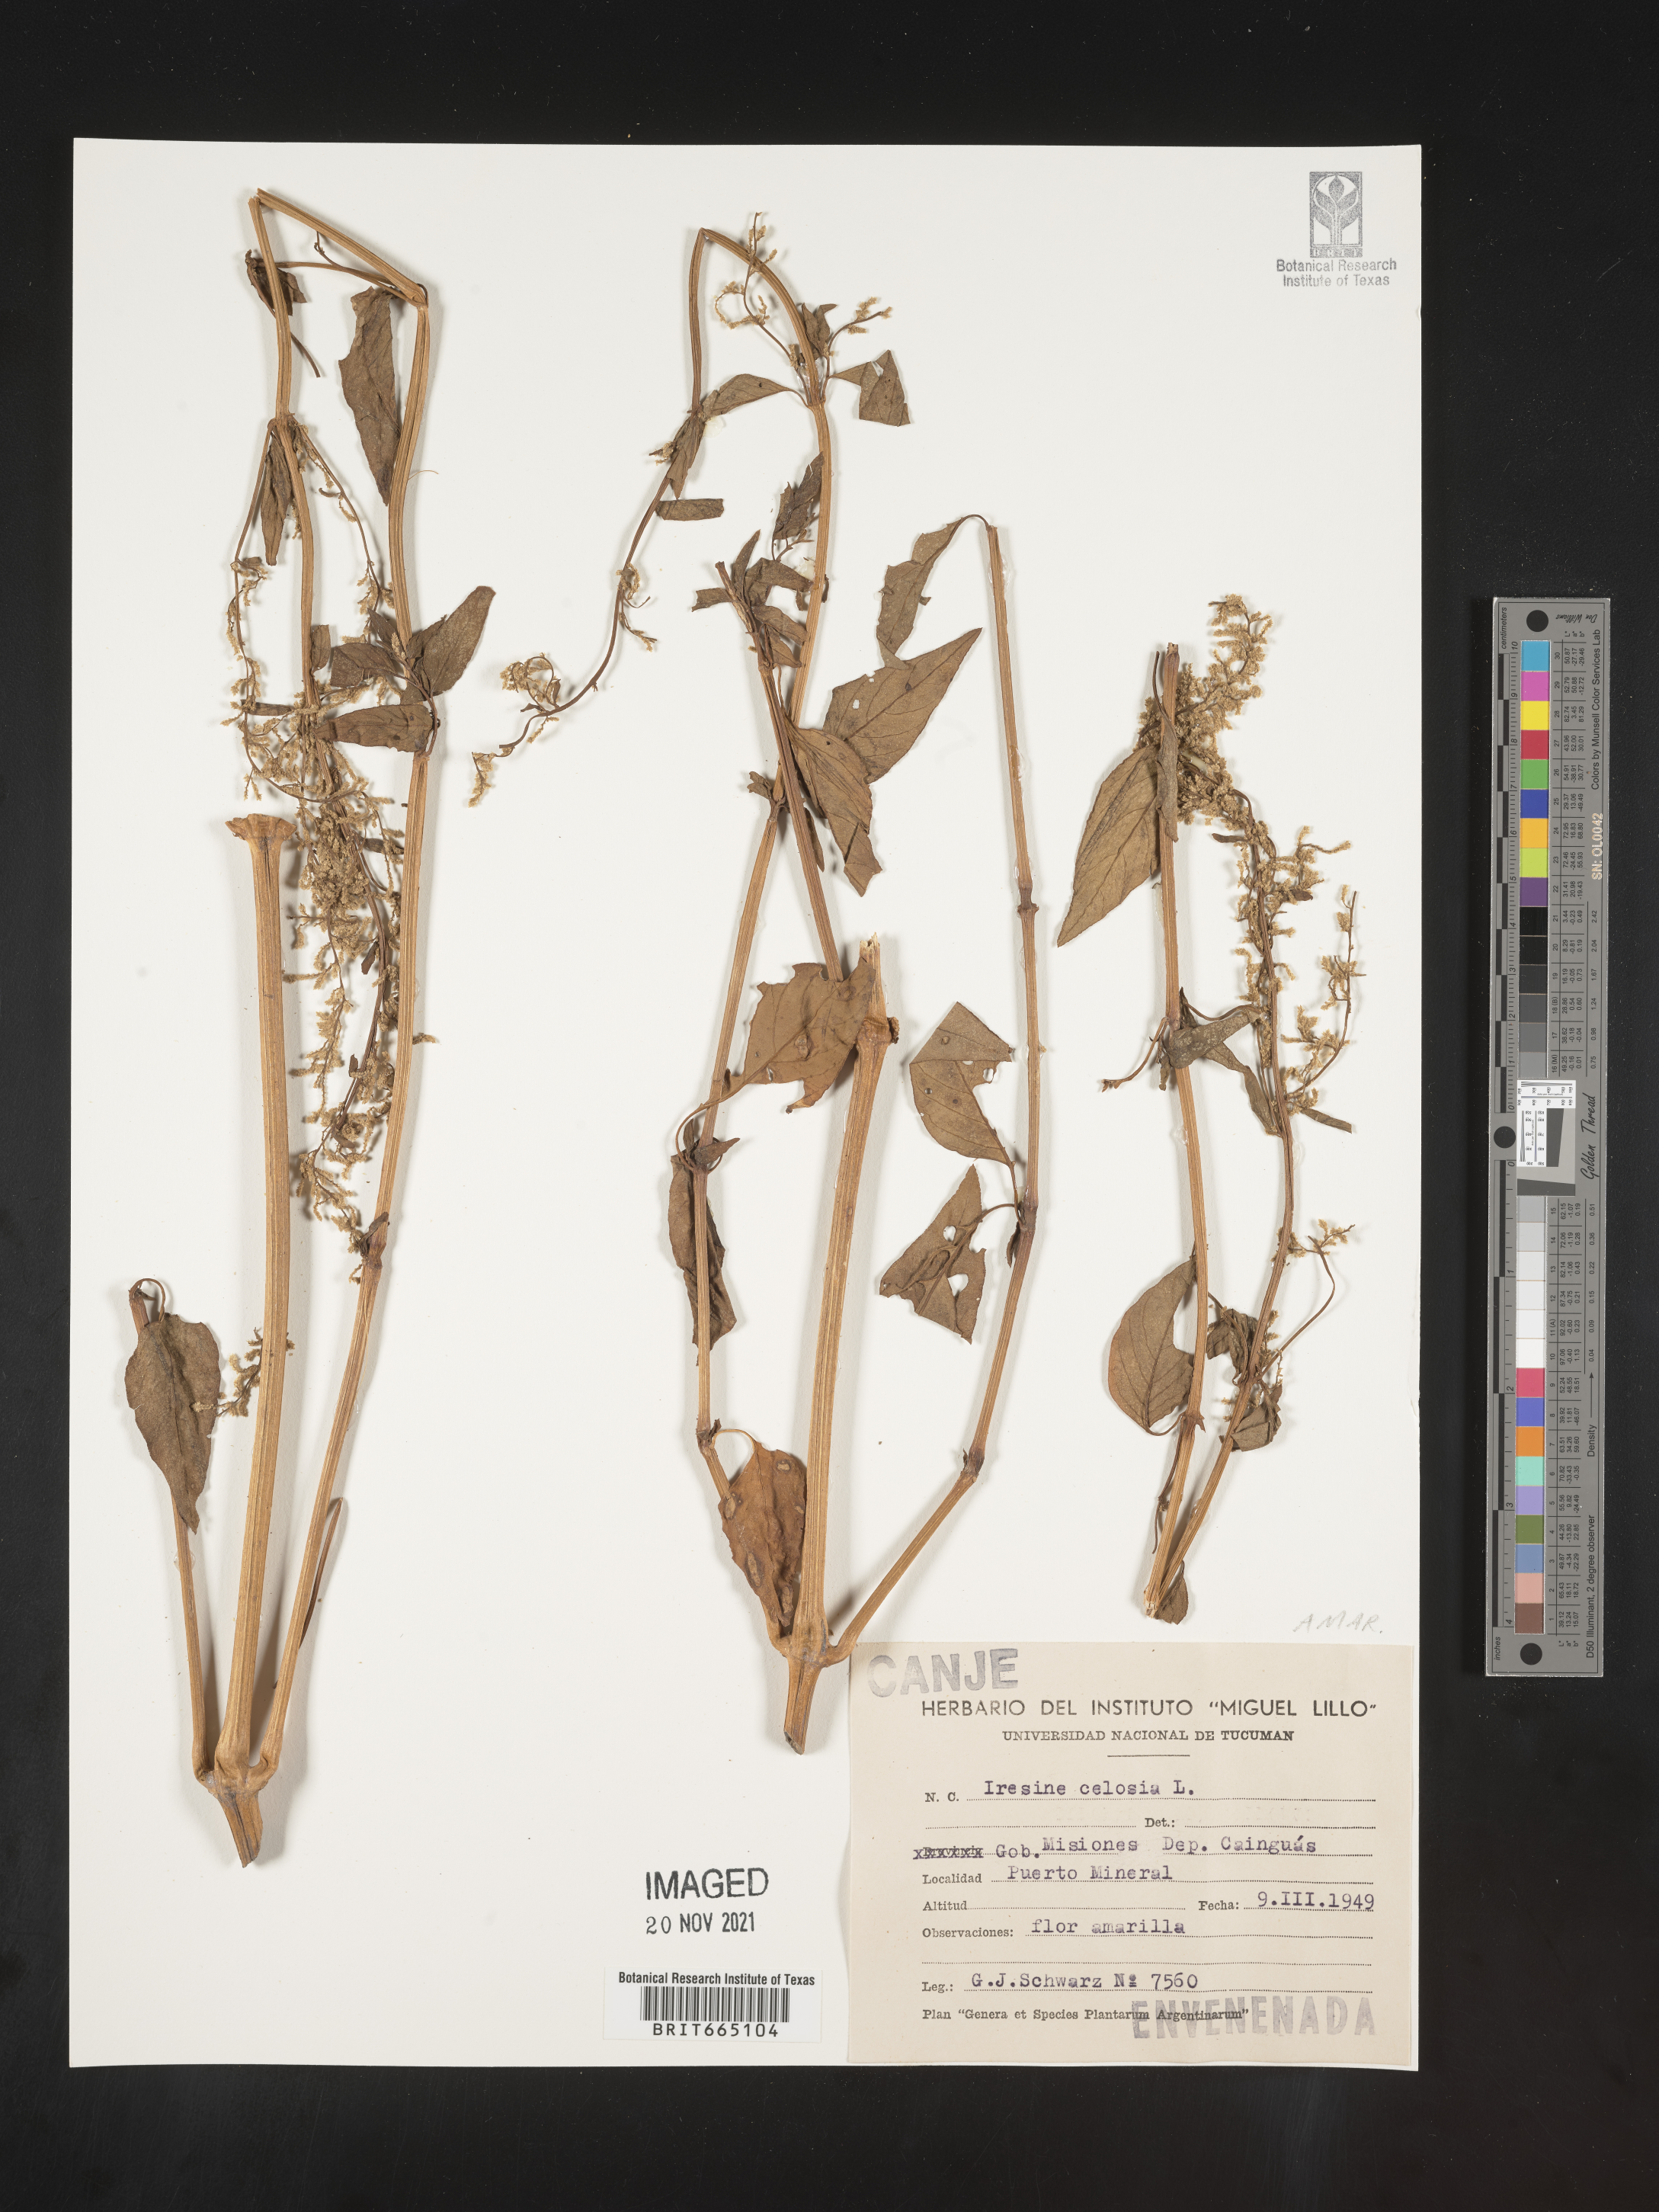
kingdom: Plantae
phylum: Tracheophyta
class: Magnoliopsida
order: Caryophyllales
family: Amaranthaceae
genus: Iresine
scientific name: Iresine
